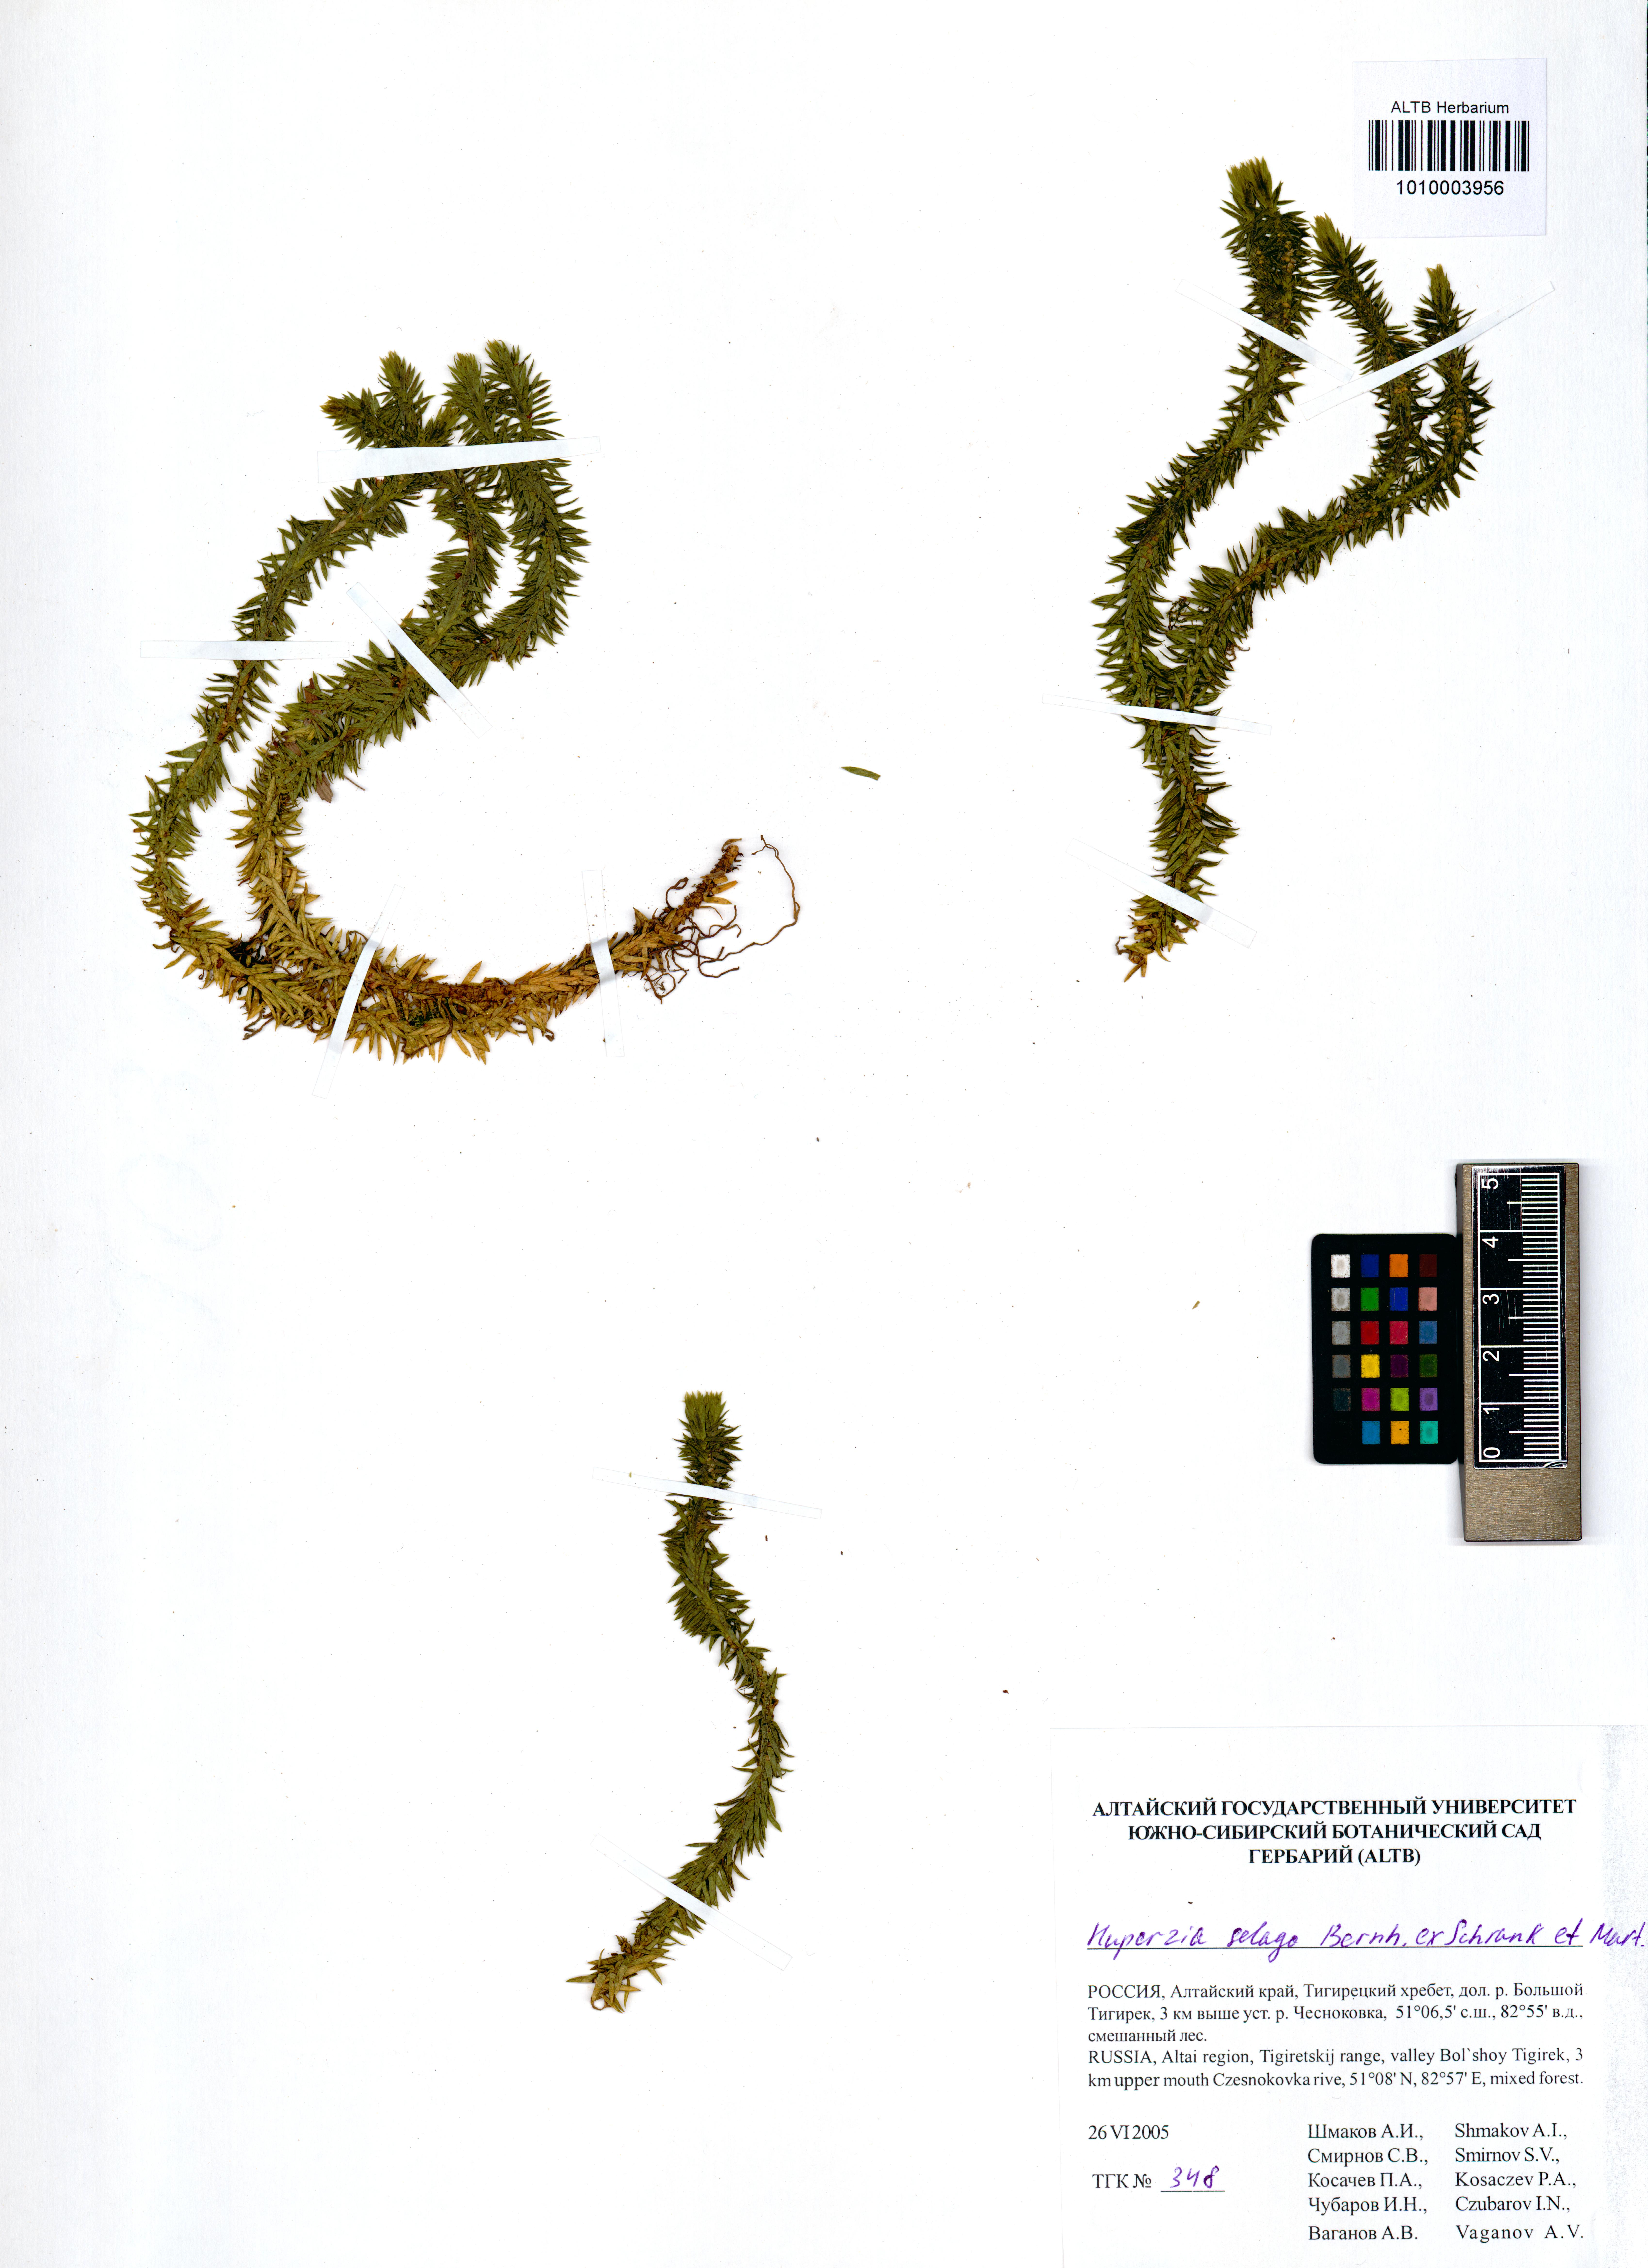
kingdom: Plantae
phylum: Tracheophyta
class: Lycopodiopsida
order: Lycopodiales
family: Lycopodiaceae
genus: Huperzia
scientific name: Huperzia selago
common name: Northern firmoss
